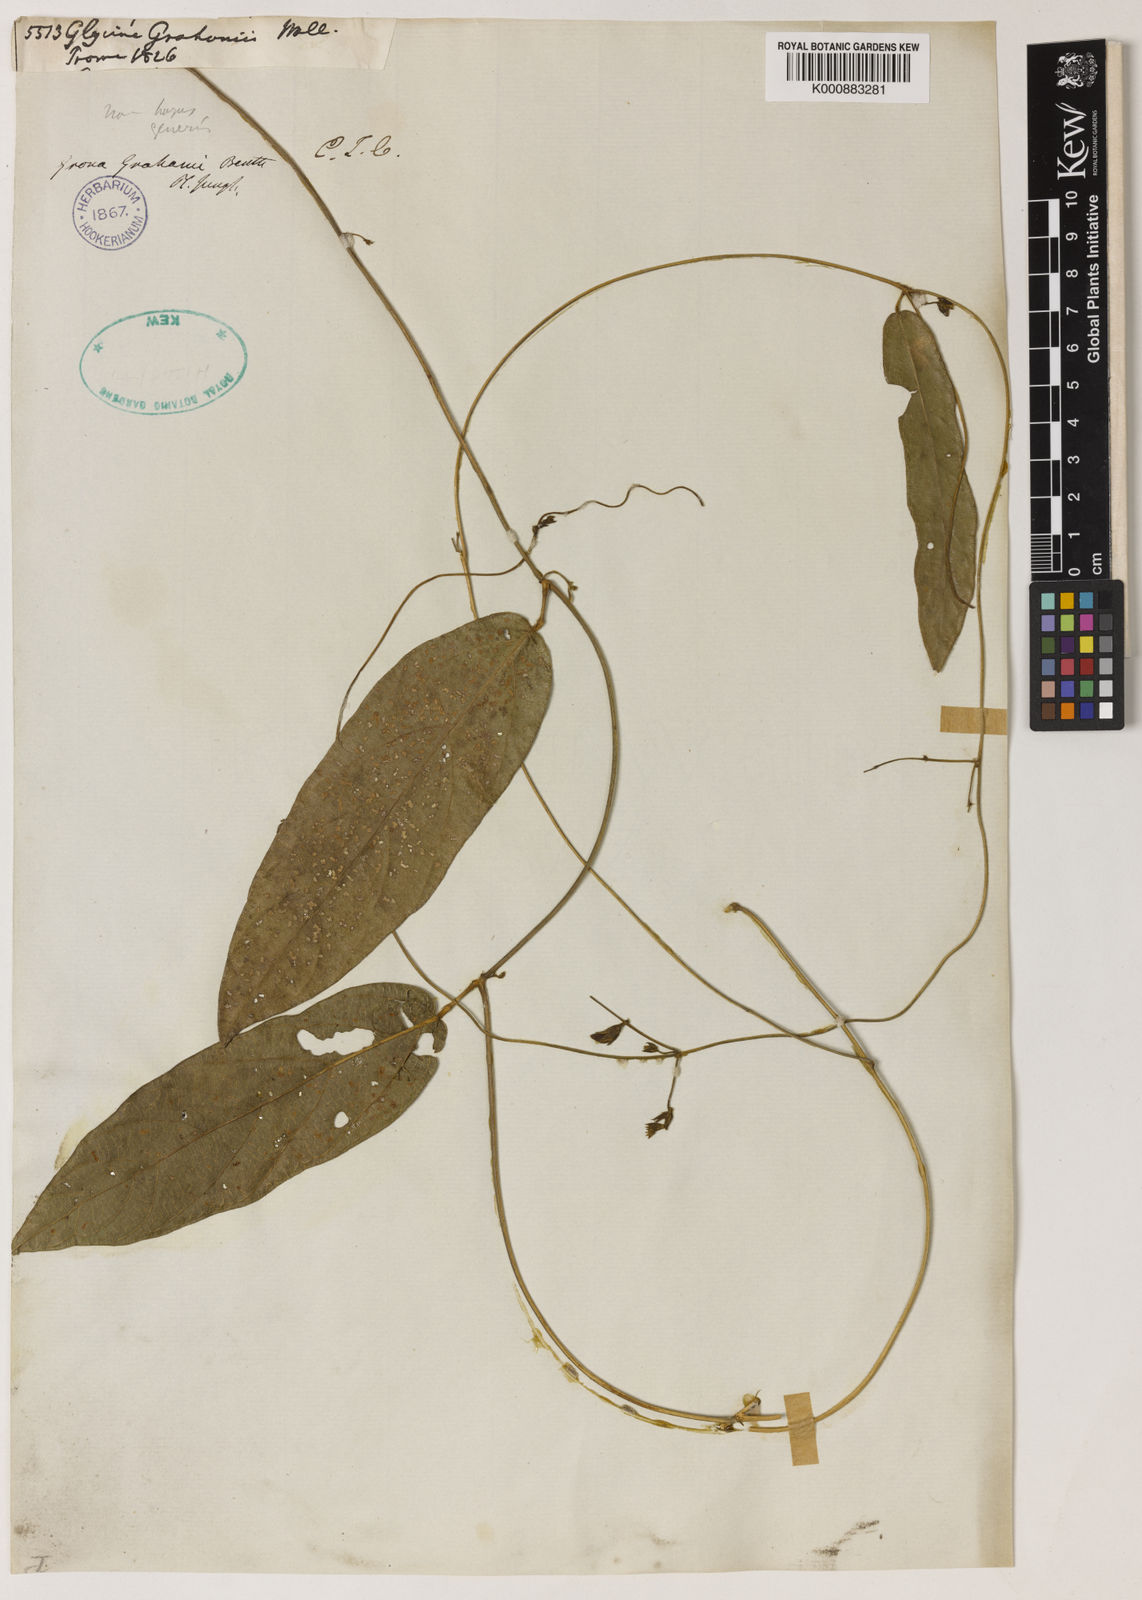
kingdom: Plantae
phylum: Tracheophyta
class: Magnoliopsida
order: Fabales
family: Fabaceae
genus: Nogra
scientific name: Nogra grahamii
